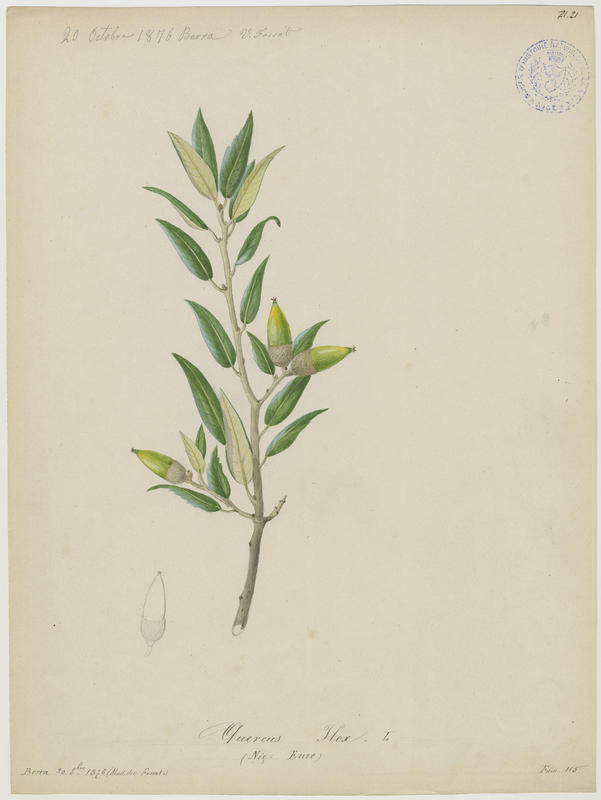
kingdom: Plantae
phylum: Tracheophyta
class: Magnoliopsida
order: Fagales
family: Fagaceae
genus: Quercus
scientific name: Quercus ilex
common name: Evergreen oak
